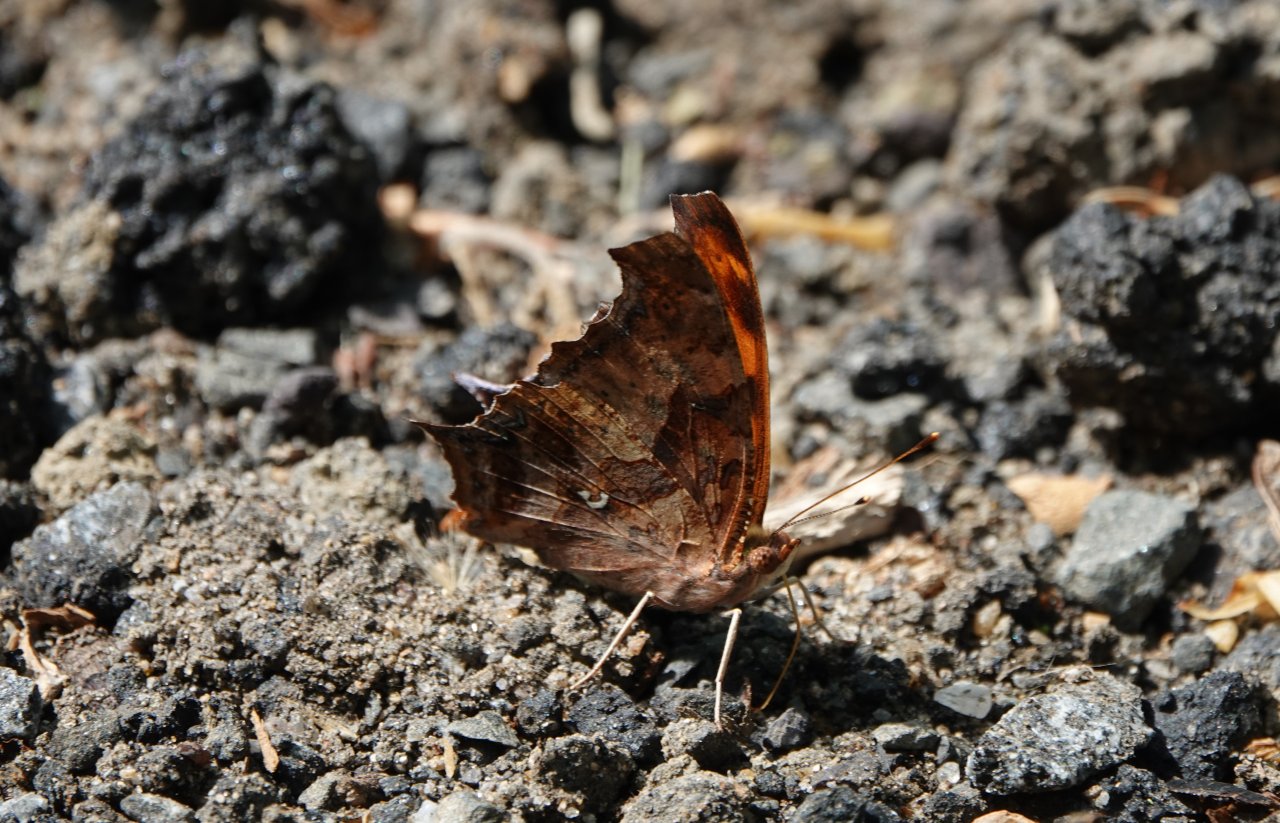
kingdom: Animalia
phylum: Arthropoda
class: Insecta
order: Lepidoptera
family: Nymphalidae
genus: Polygonia
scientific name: Polygonia interrogationis
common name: Question Mark
